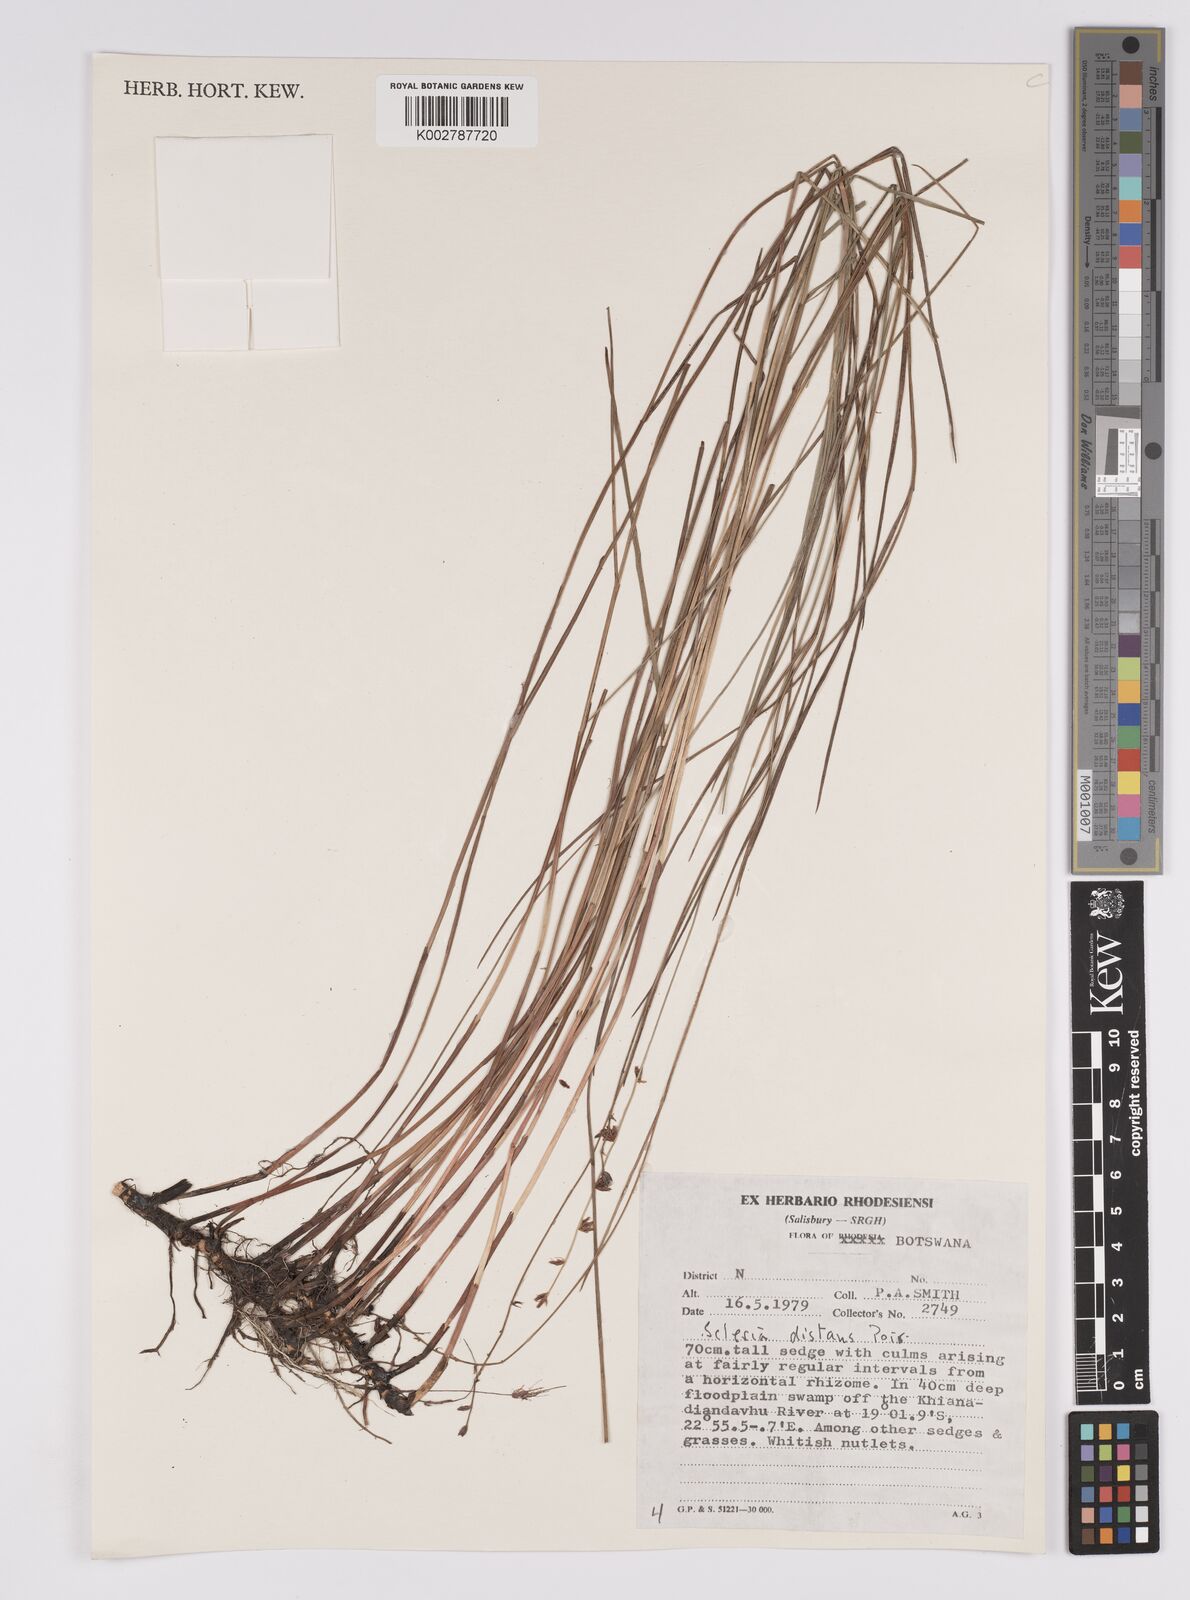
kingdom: Plantae
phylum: Tracheophyta
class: Liliopsida
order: Poales
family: Cyperaceae
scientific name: Cyperaceae
